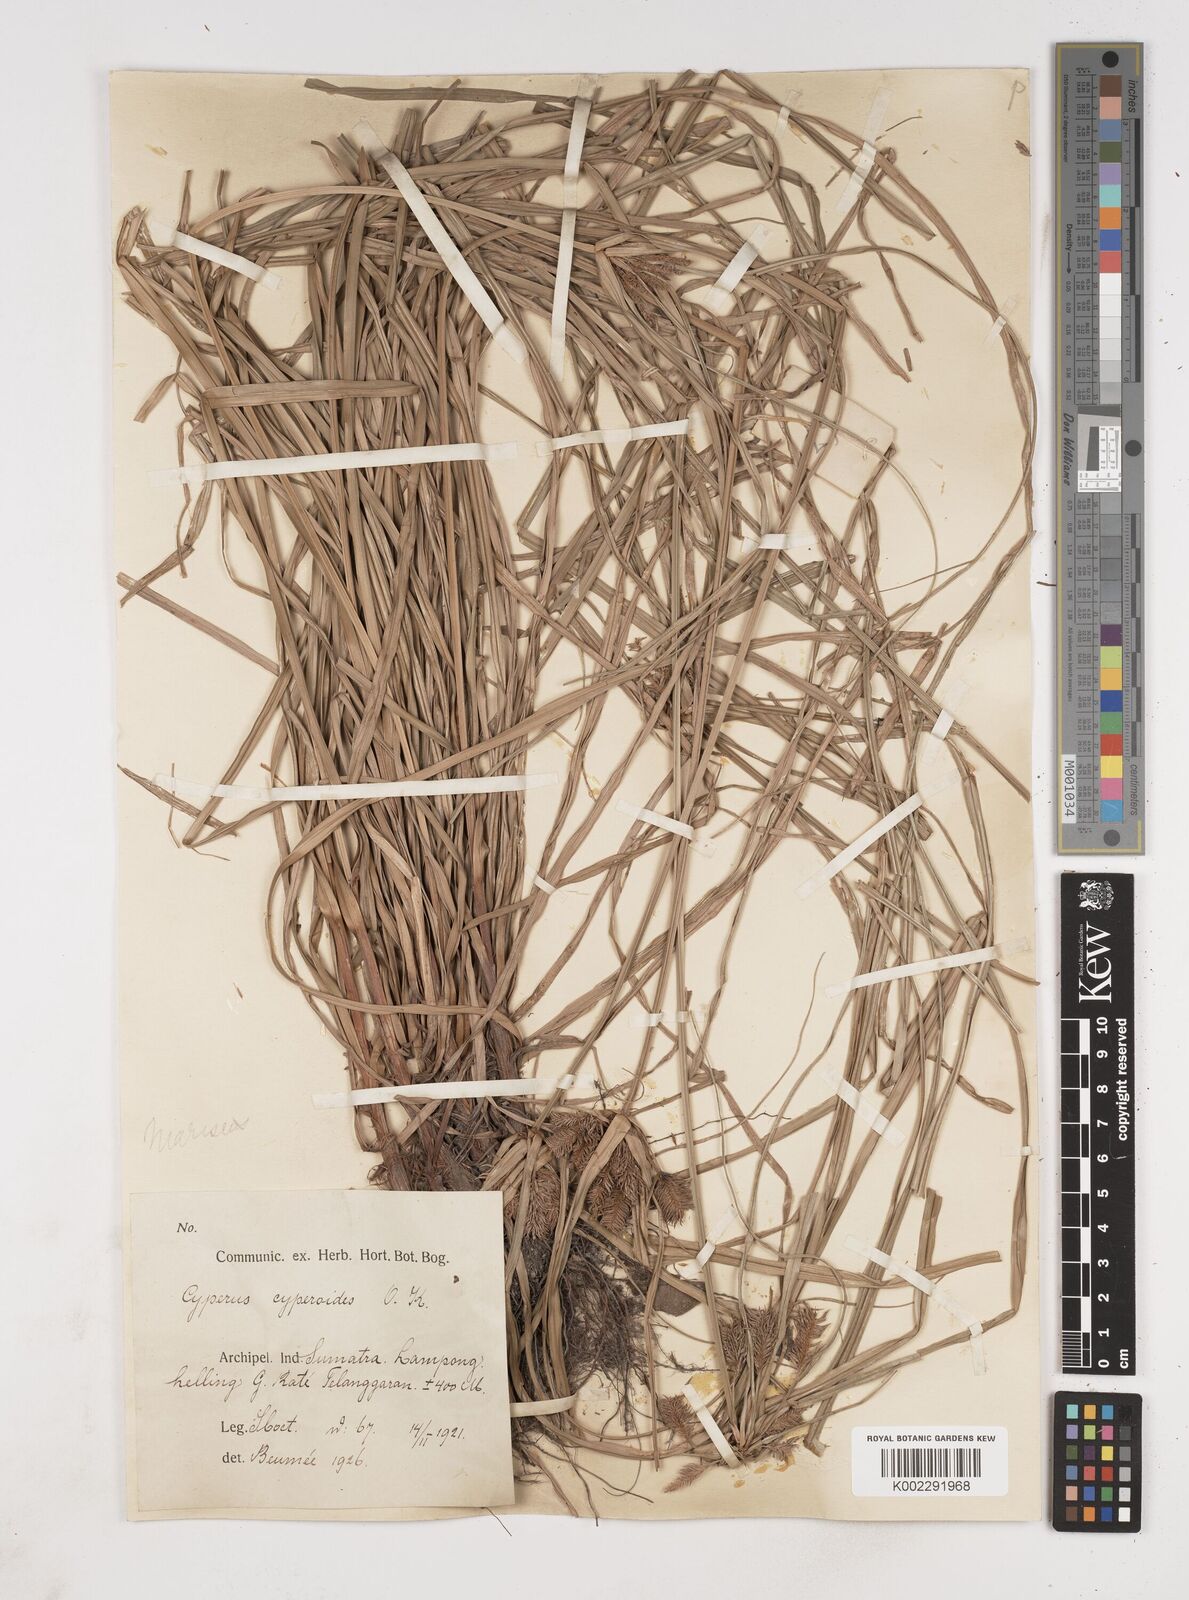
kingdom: Plantae
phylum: Tracheophyta
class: Liliopsida
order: Poales
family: Cyperaceae
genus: Cyperus
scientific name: Cyperus cyperoides
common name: Pacific island flat sedge
